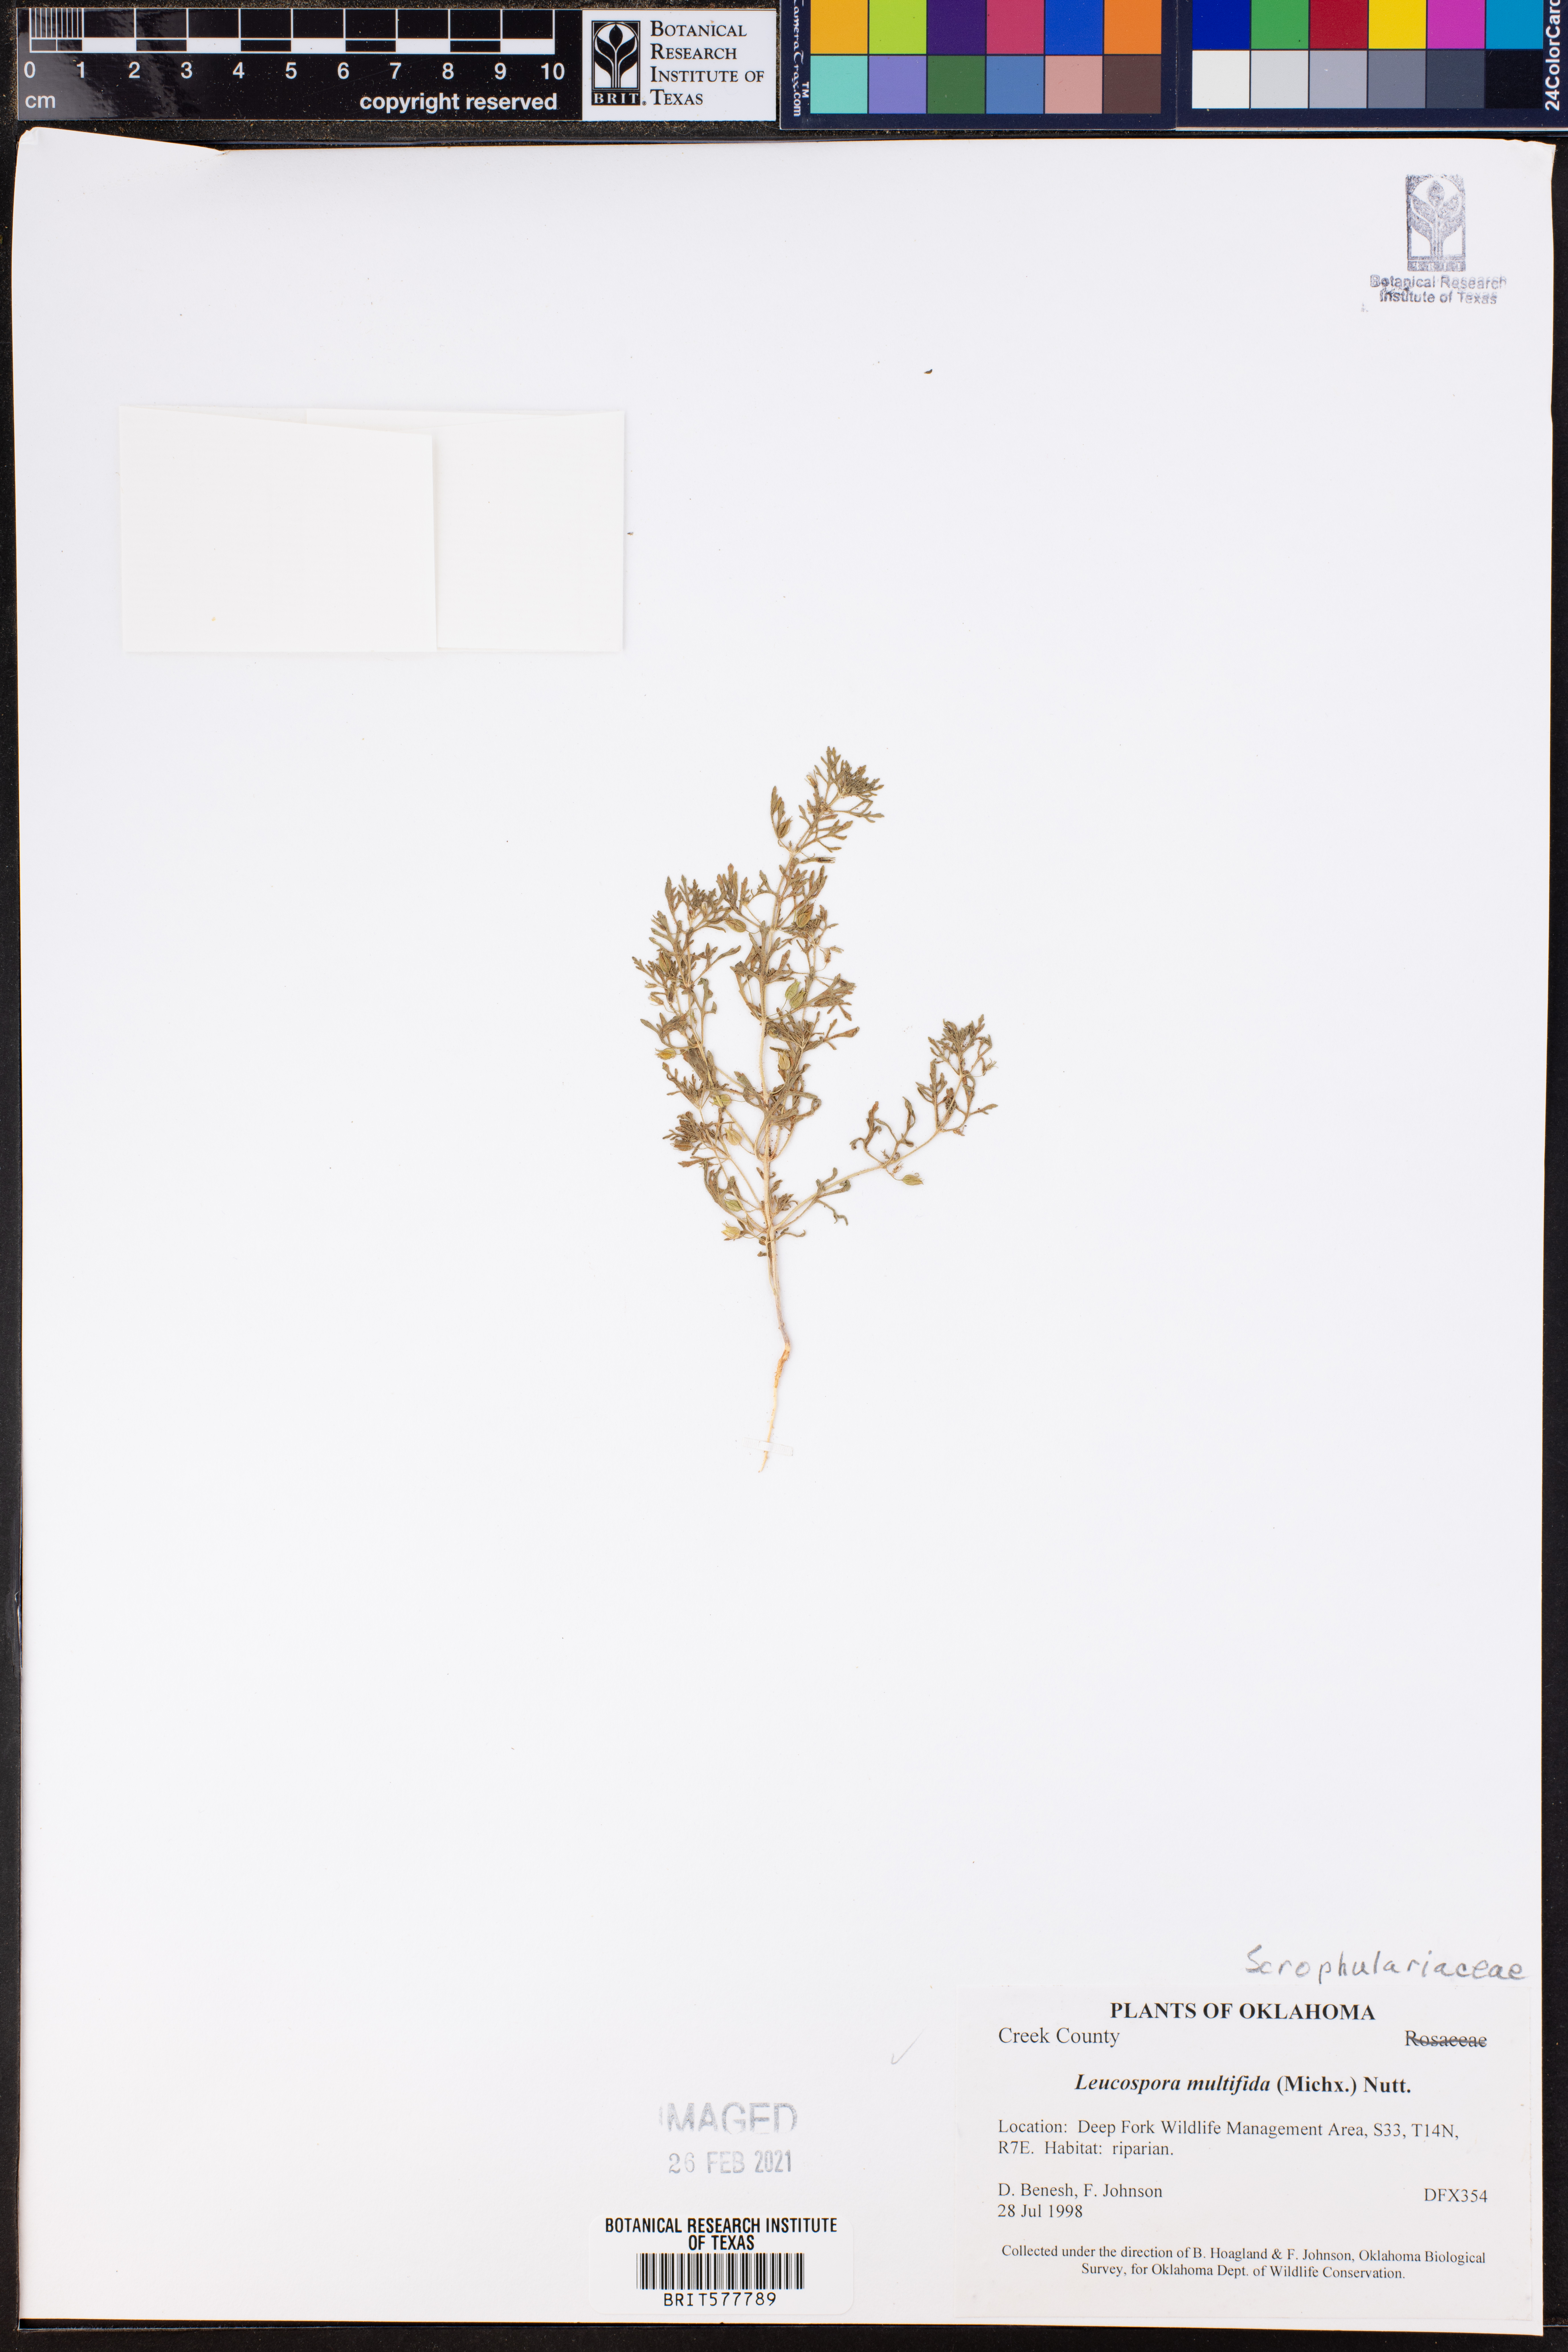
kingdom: Plantae
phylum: Tracheophyta
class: Magnoliopsida
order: Lamiales
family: Plantaginaceae
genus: Leucospora
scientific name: Leucospora multifida
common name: Narrow-leaf paleseed
